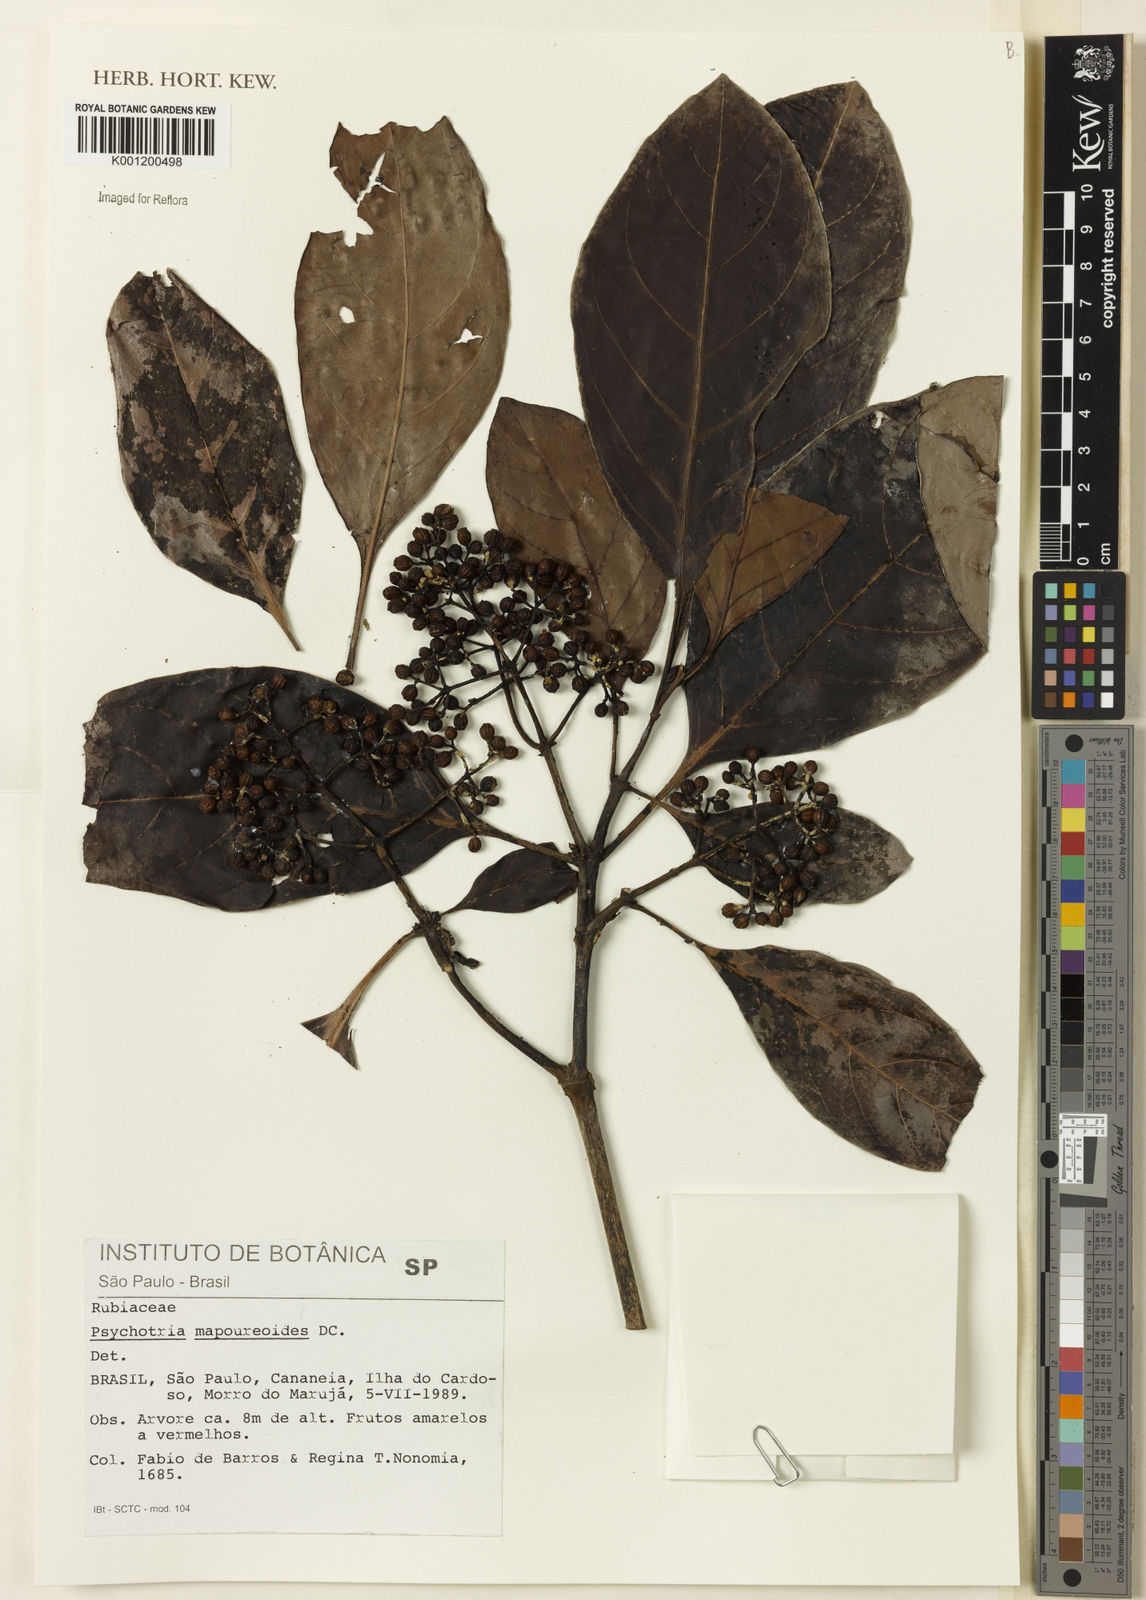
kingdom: Plantae
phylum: Tracheophyta
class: Magnoliopsida
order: Gentianales
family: Rubiaceae
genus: Psychotria
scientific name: Psychotria carthagenensis
